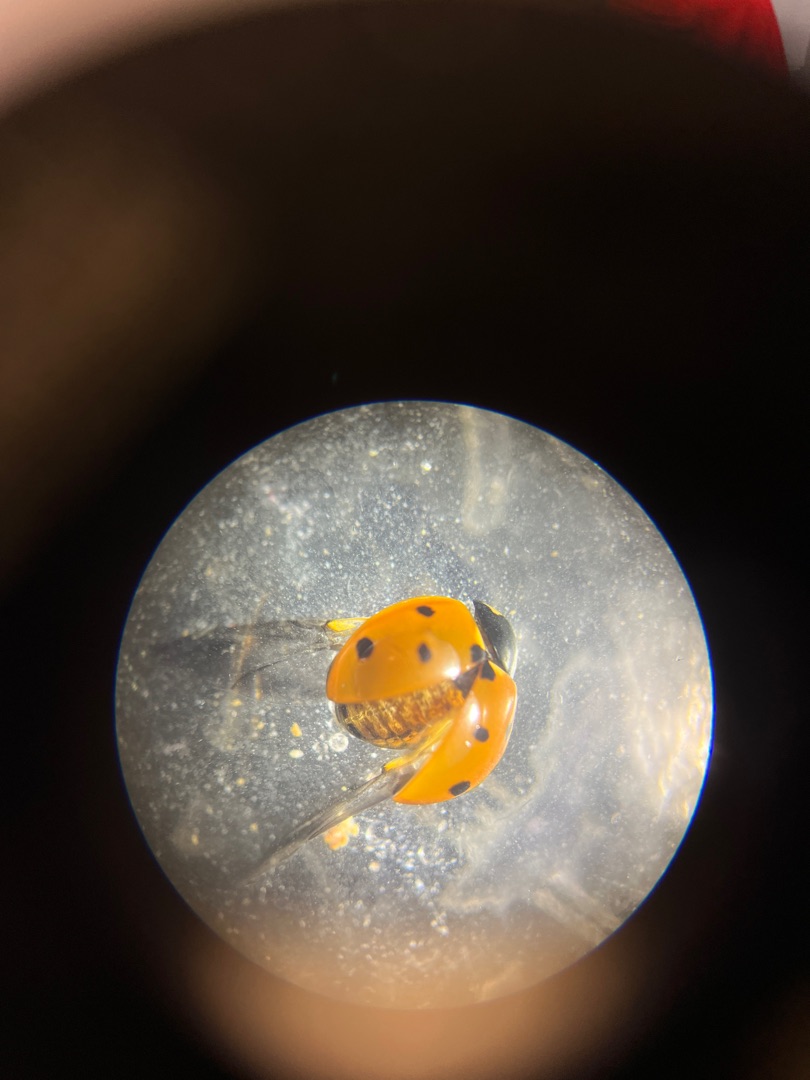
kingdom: Animalia
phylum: Arthropoda
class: Insecta
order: Coleoptera
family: Coccinellidae
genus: Coccinella
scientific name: Coccinella septempunctata
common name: Syvplettet mariehøne
